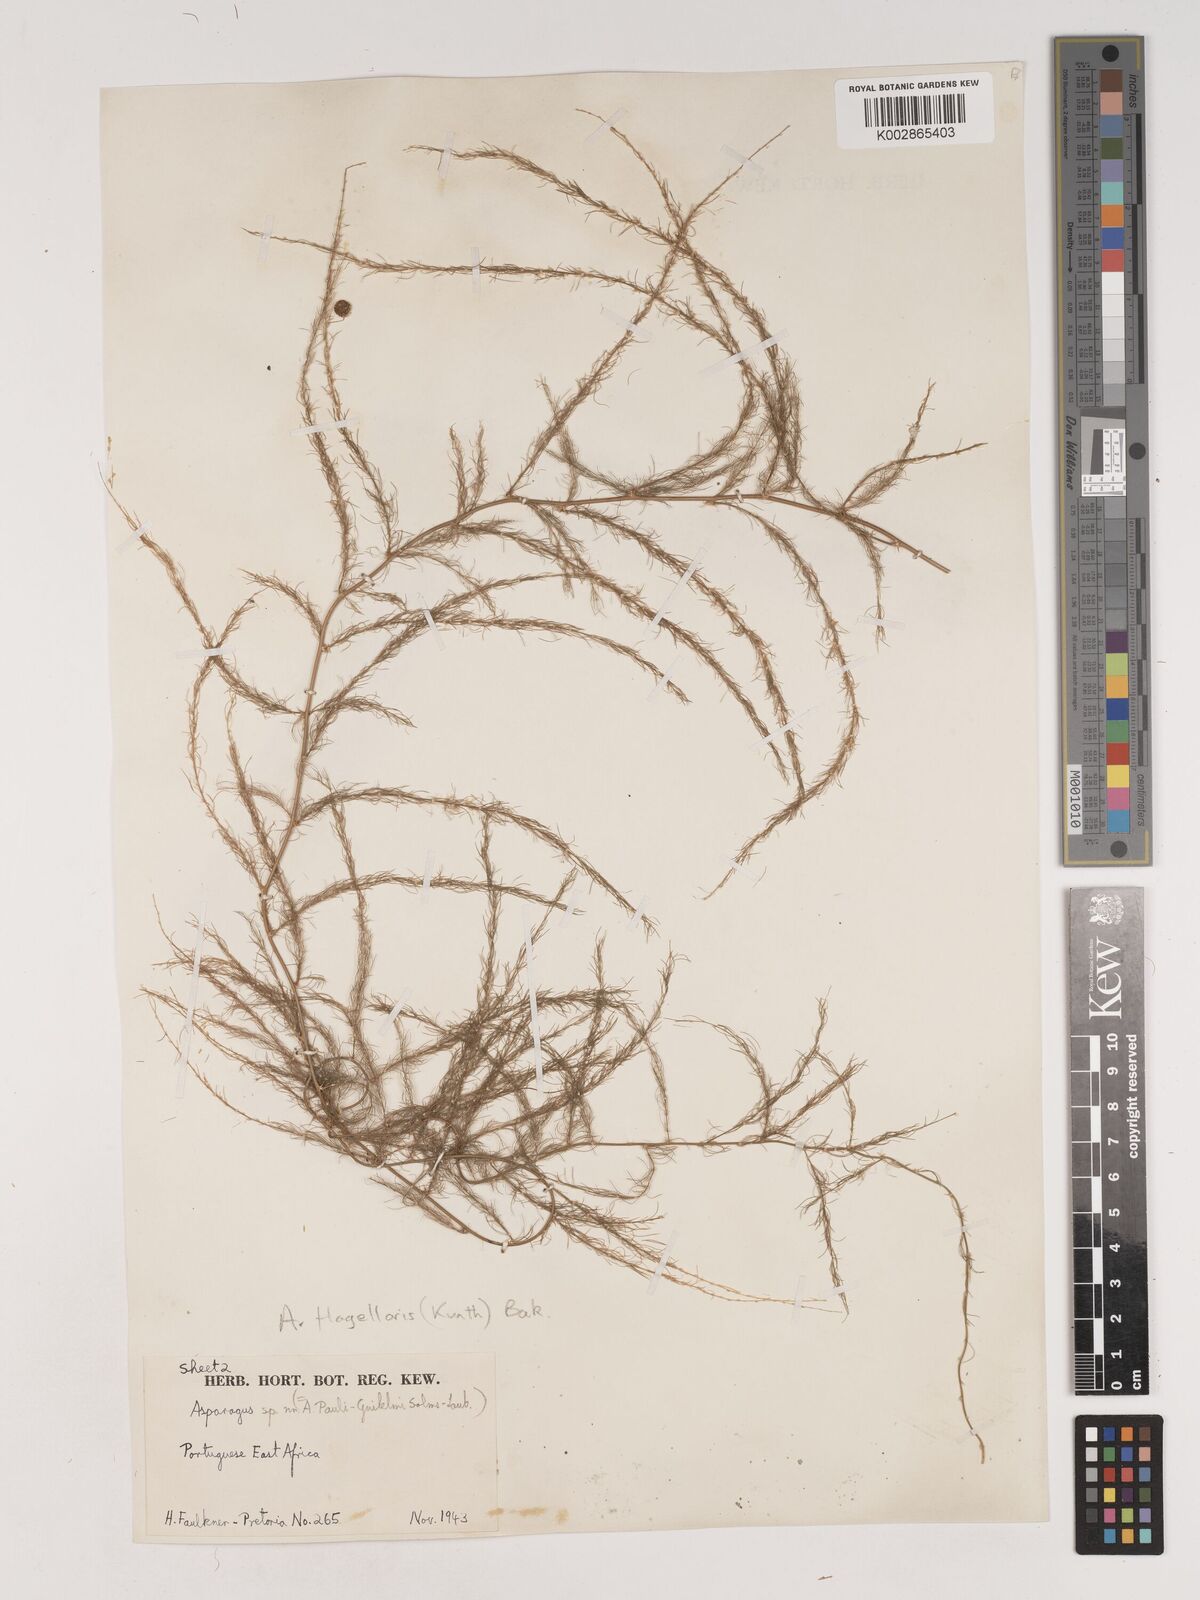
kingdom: Plantae
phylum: Tracheophyta
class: Liliopsida
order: Asparagales
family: Asparagaceae
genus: Asparagus
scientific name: Asparagus flagellaris
